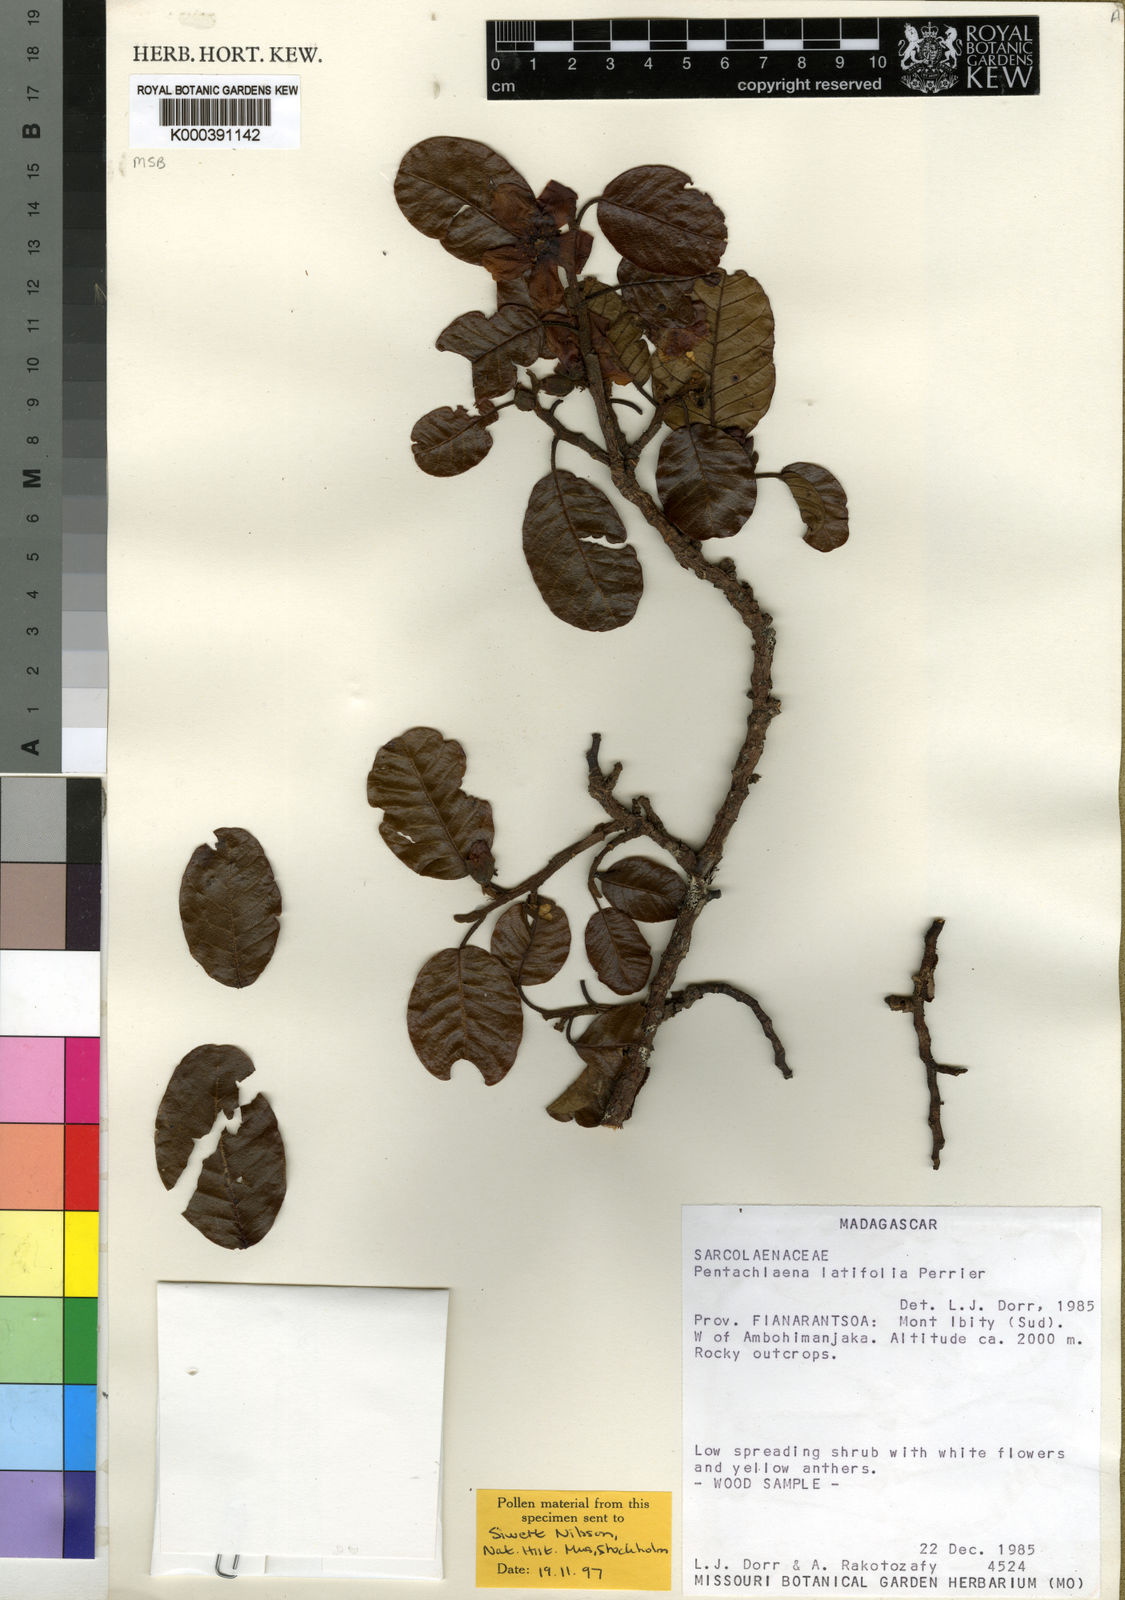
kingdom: Plantae
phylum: Tracheophyta
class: Magnoliopsida
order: Malvales
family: Sarcolaenaceae
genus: Pentachlaena
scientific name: Pentachlaena
